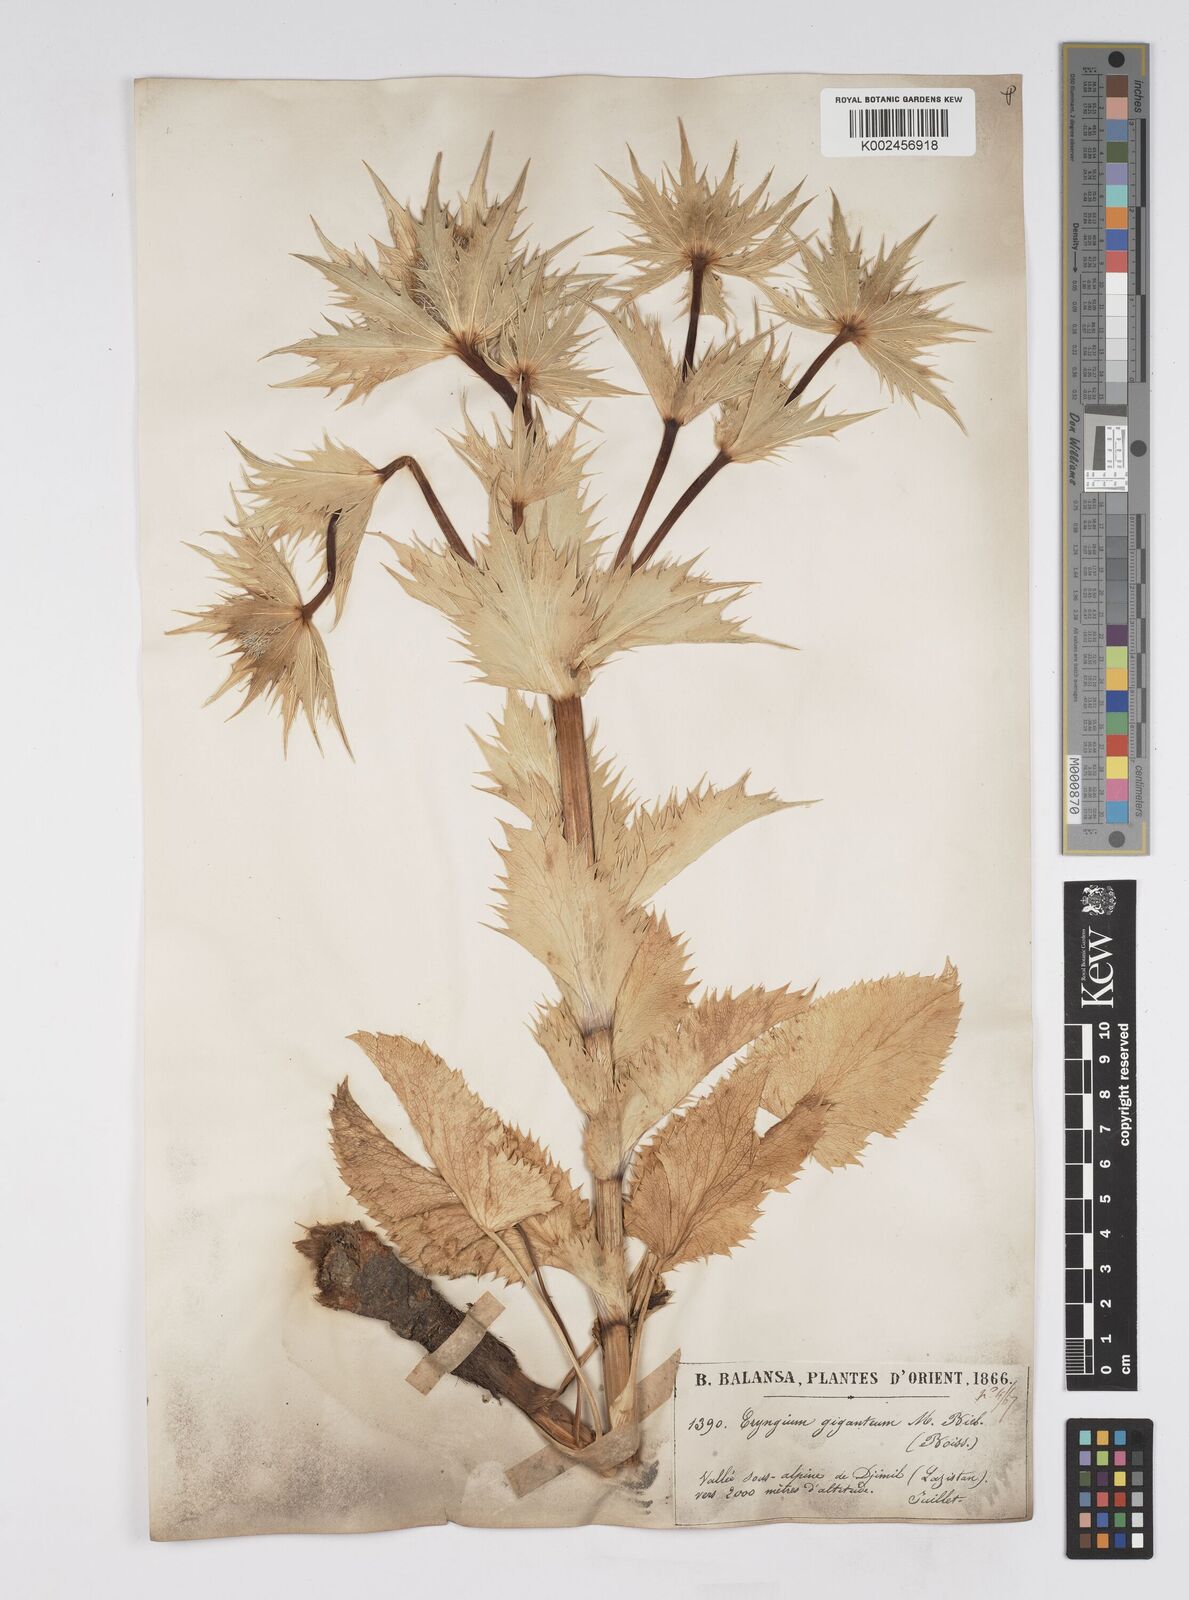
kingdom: Plantae
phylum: Tracheophyta
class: Magnoliopsida
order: Apiales
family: Apiaceae
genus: Eryngium
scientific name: Eryngium giganteum
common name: Tall eryngo
